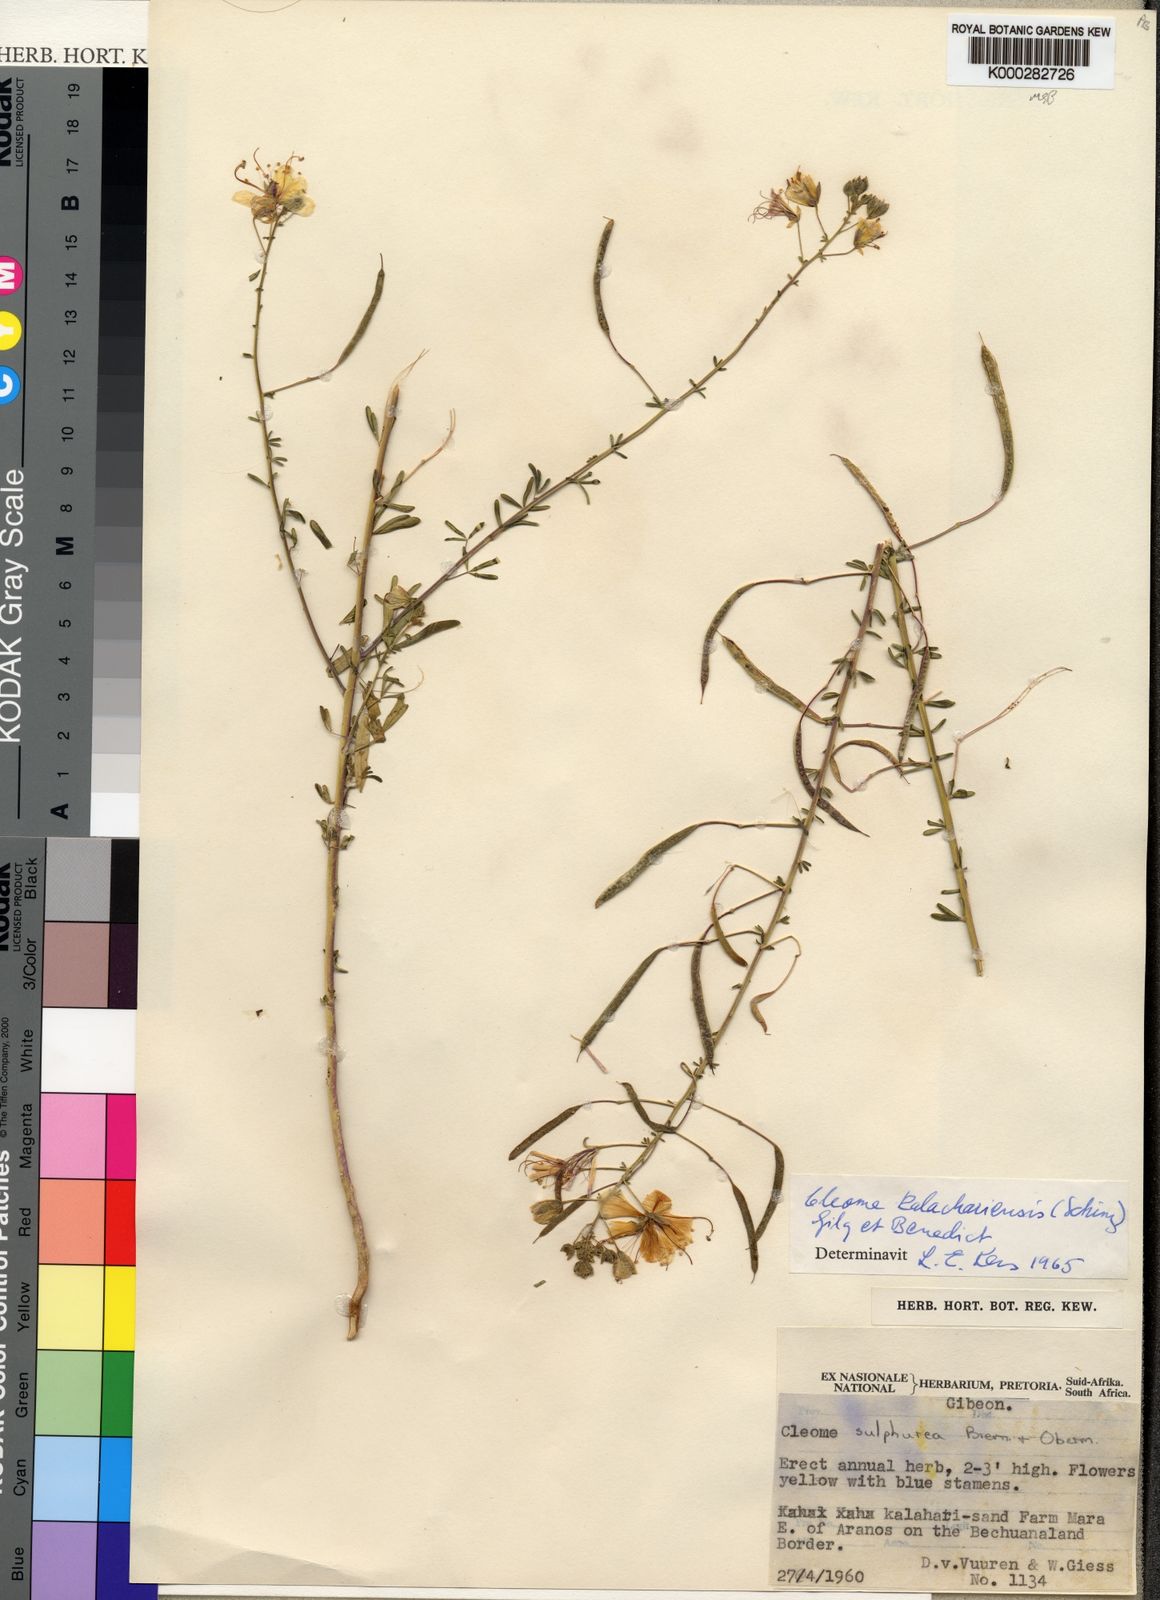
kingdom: Plantae
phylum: Tracheophyta
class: Magnoliopsida
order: Brassicales
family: Cleomaceae
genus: Kersia
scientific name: Kersia kalachariensis
